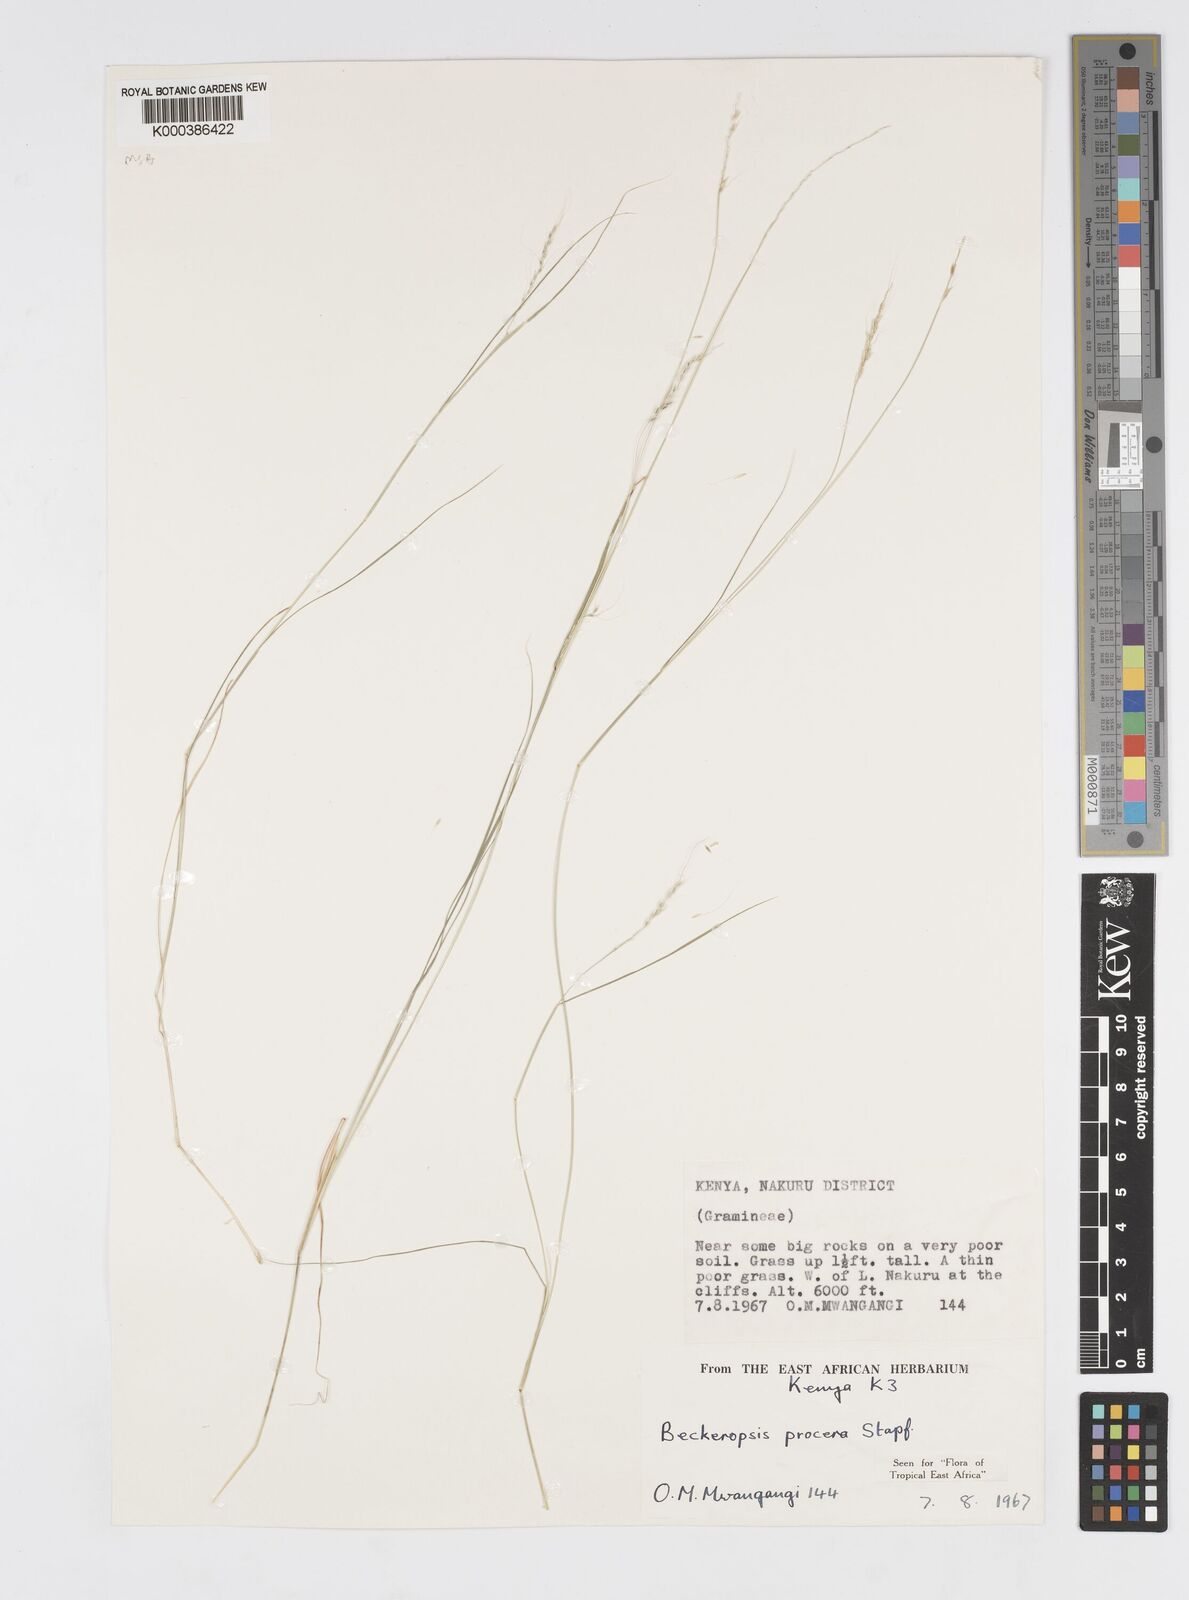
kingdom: Plantae
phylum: Tracheophyta
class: Liliopsida
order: Poales
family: Poaceae
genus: Cenchrus
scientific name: Cenchrus procerus
